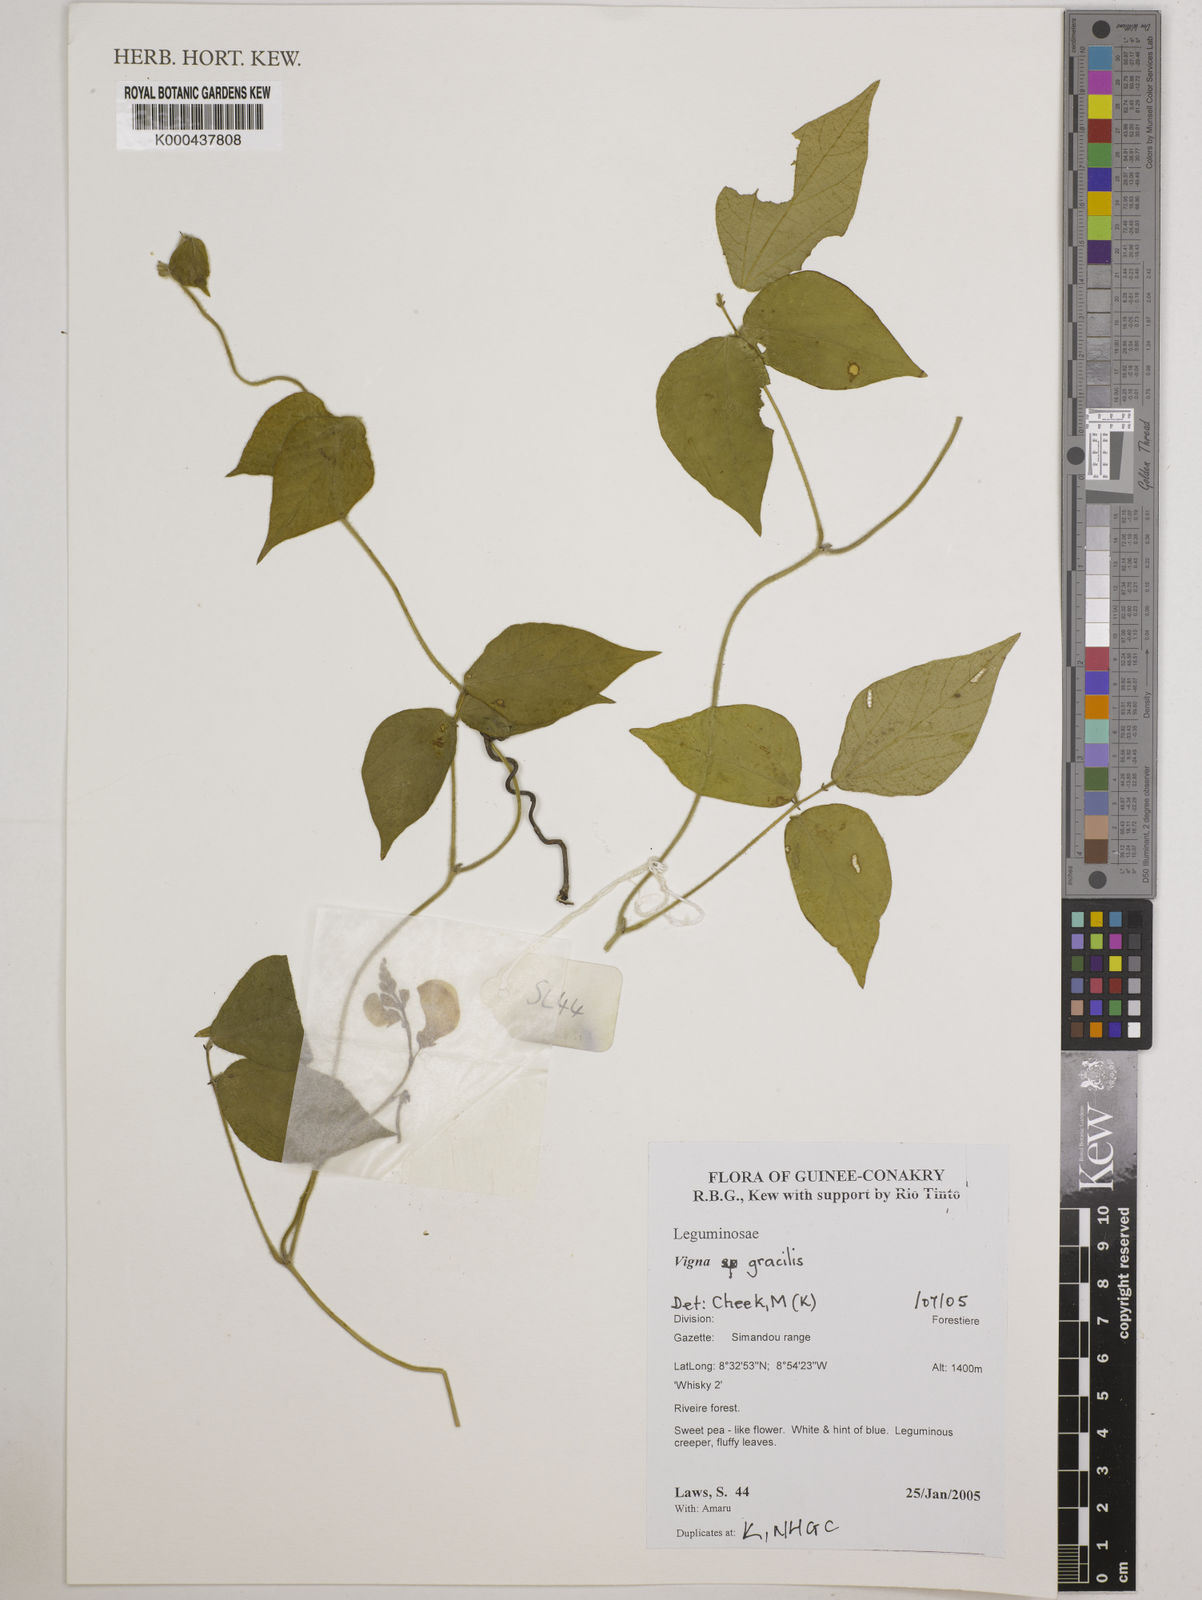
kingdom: Plantae
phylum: Tracheophyta
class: Magnoliopsida
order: Fabales
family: Fabaceae
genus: Vigna
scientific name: Vigna gracilis
